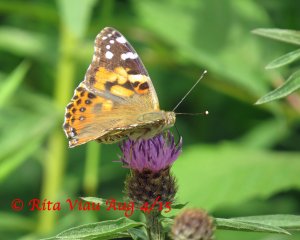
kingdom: Animalia
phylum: Arthropoda
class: Insecta
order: Lepidoptera
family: Nymphalidae
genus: Vanessa
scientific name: Vanessa cardui
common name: Painted Lady
